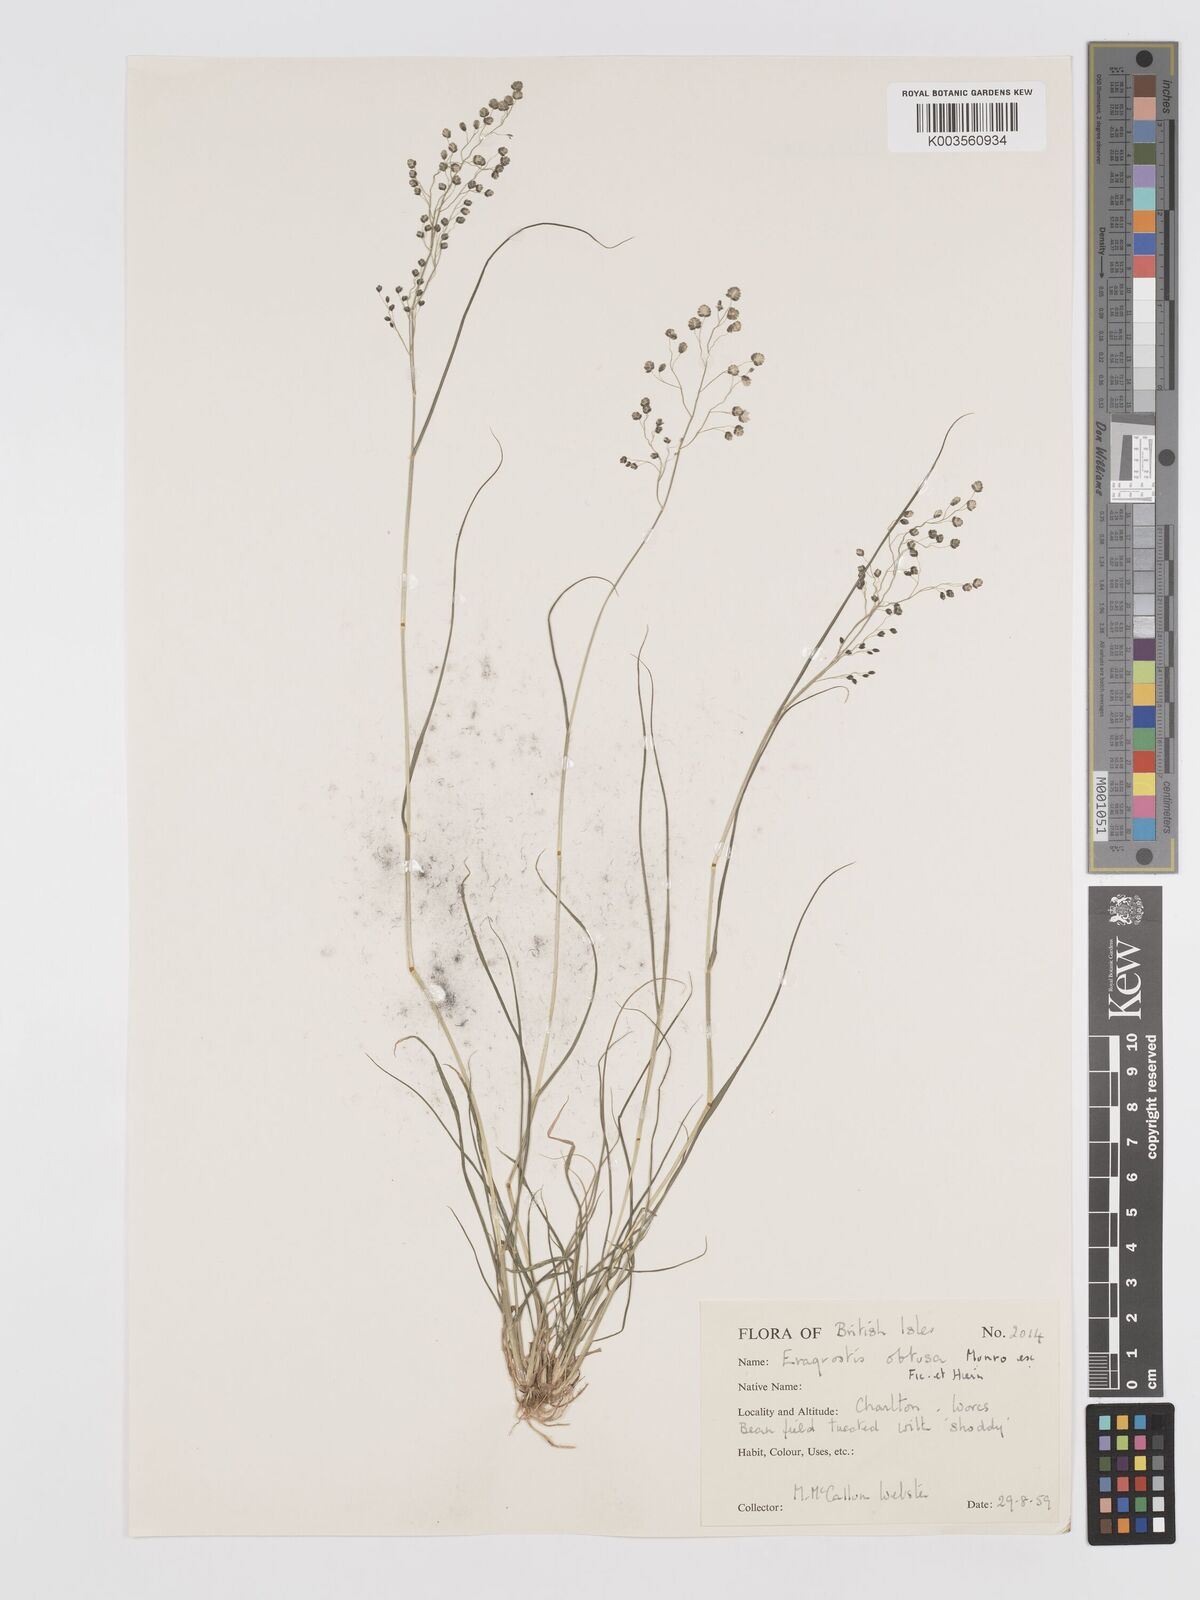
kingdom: Plantae
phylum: Tracheophyta
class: Liliopsida
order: Poales
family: Poaceae
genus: Eragrostis
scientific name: Eragrostis obtusa
